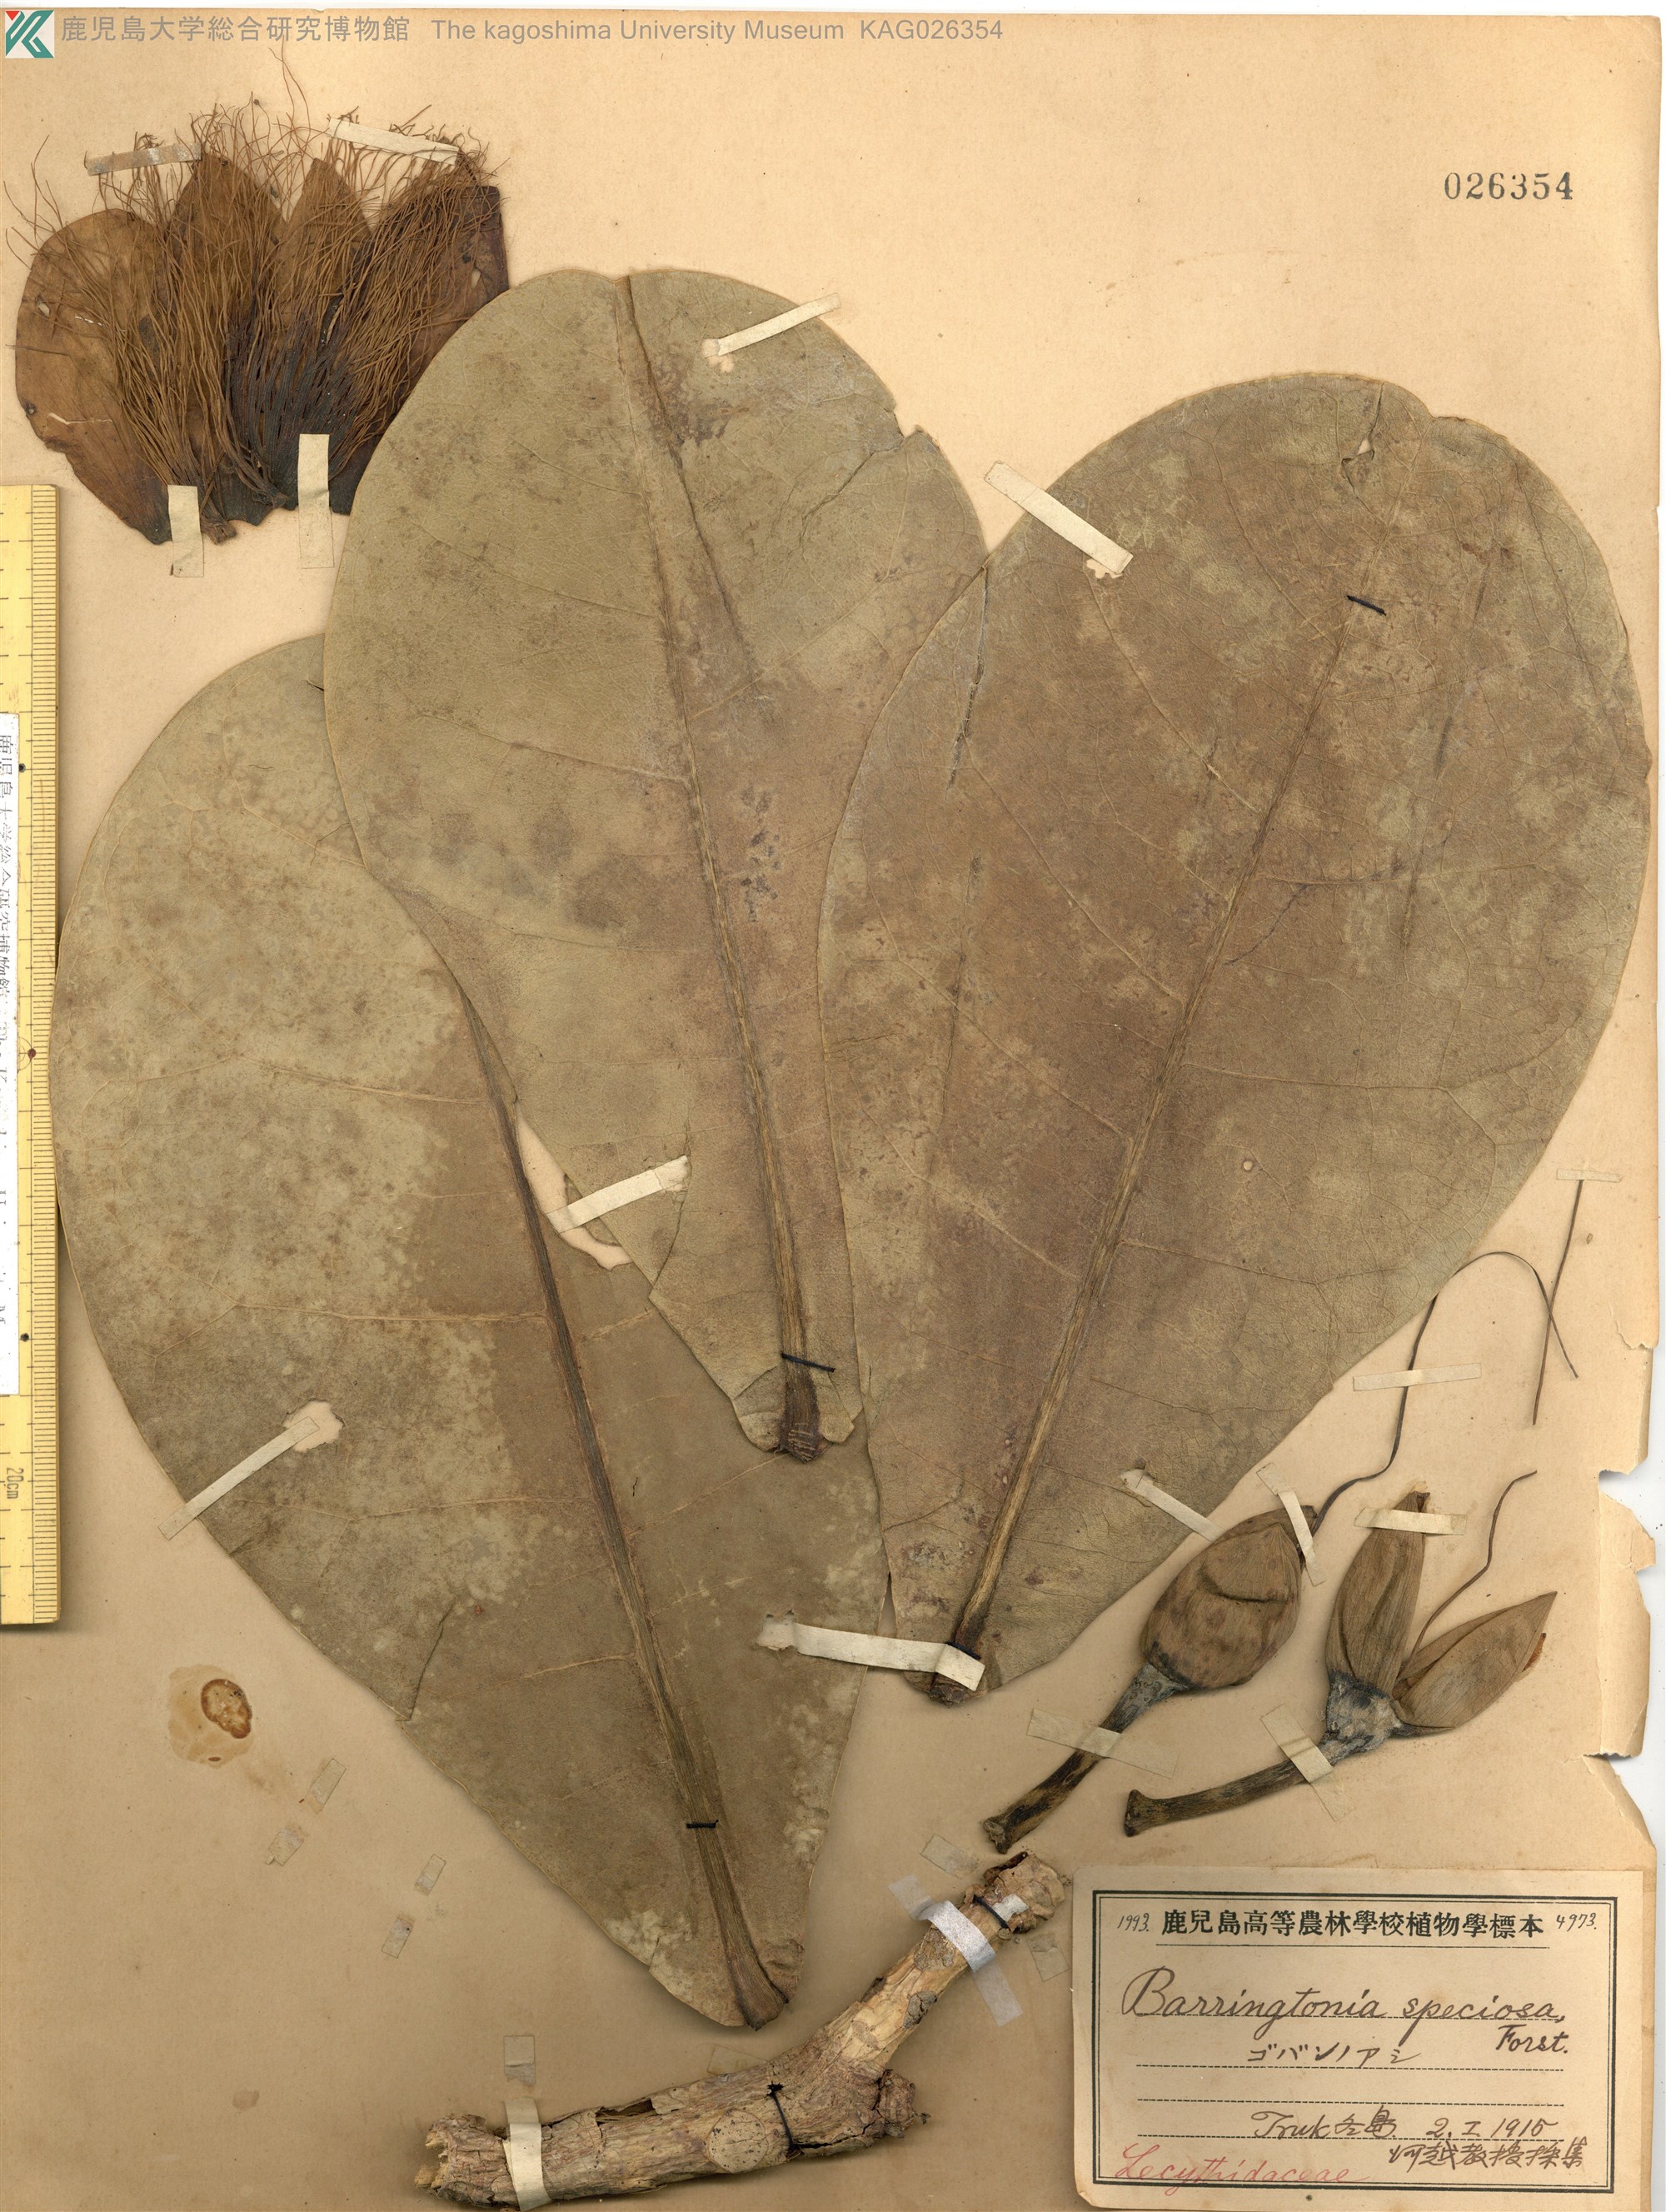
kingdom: Plantae
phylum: Tracheophyta
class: Magnoliopsida
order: Ericales
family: Lecythidaceae
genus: Barringtonia
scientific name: Barringtonia asiatica
